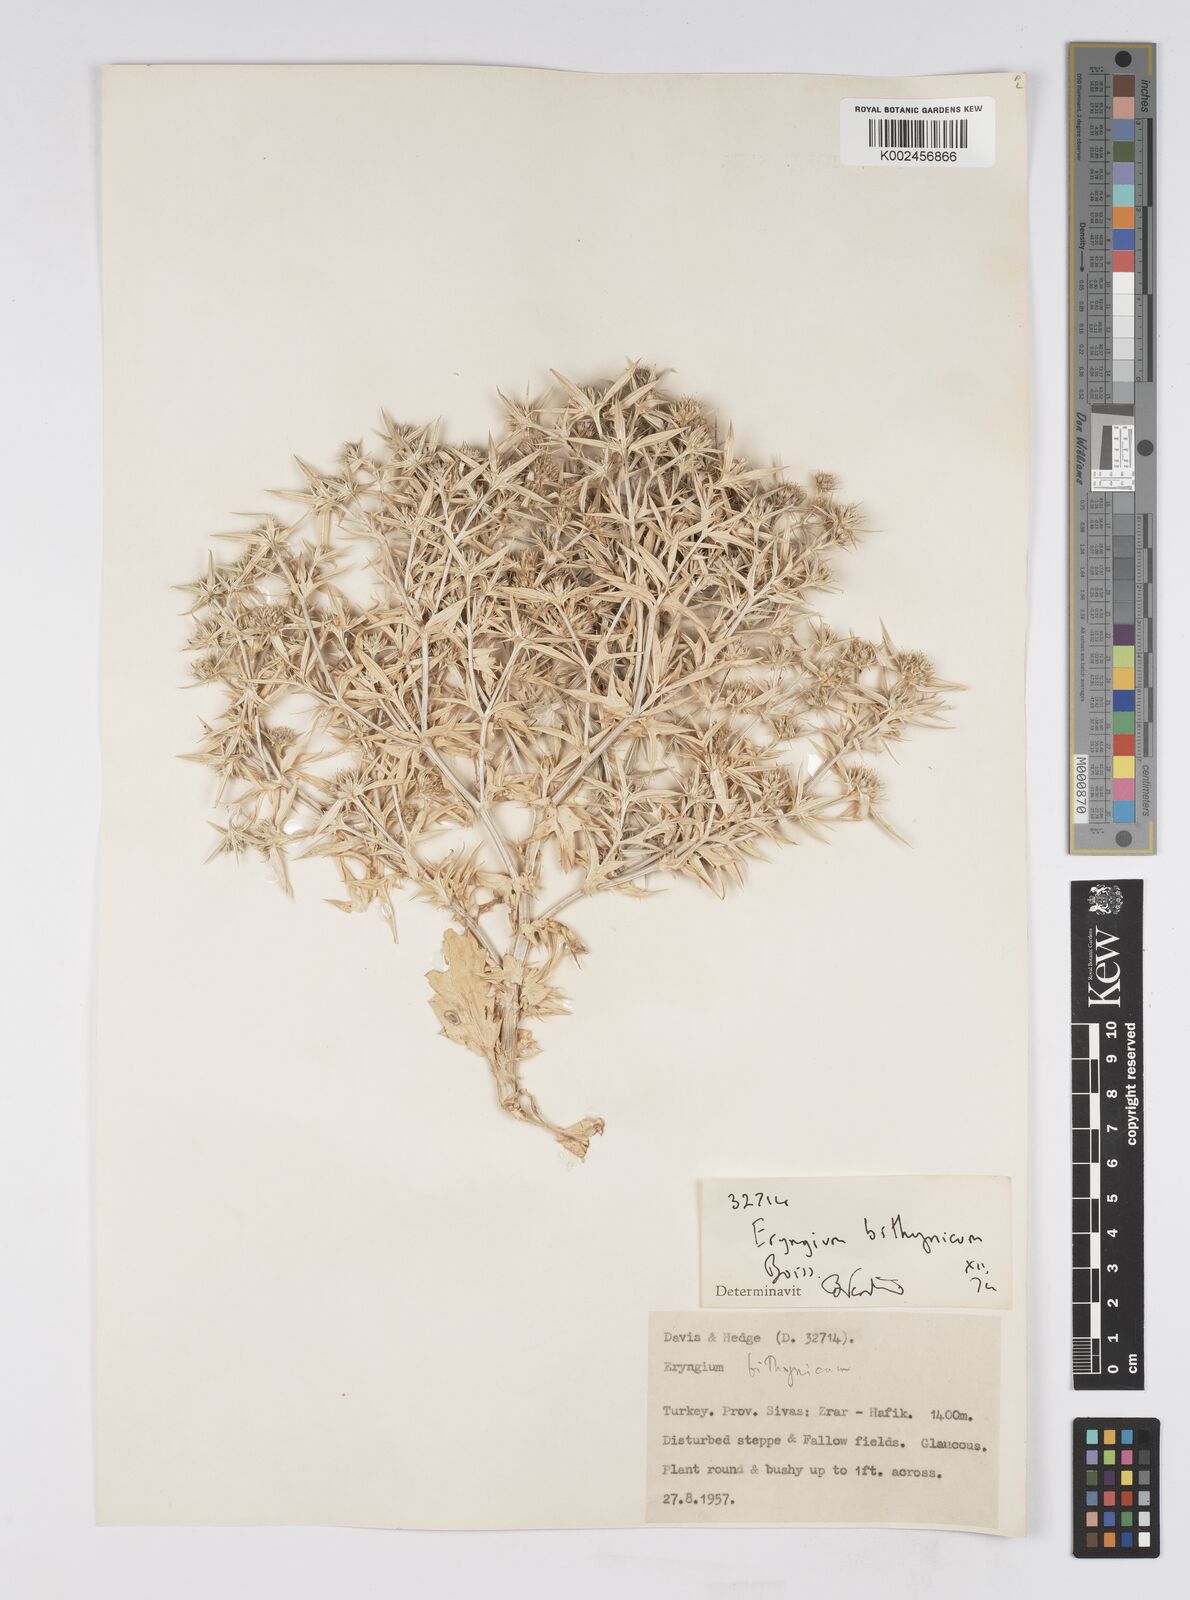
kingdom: Plantae
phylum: Tracheophyta
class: Magnoliopsida
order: Apiales
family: Apiaceae
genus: Eryngium
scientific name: Eryngium bithynicum
